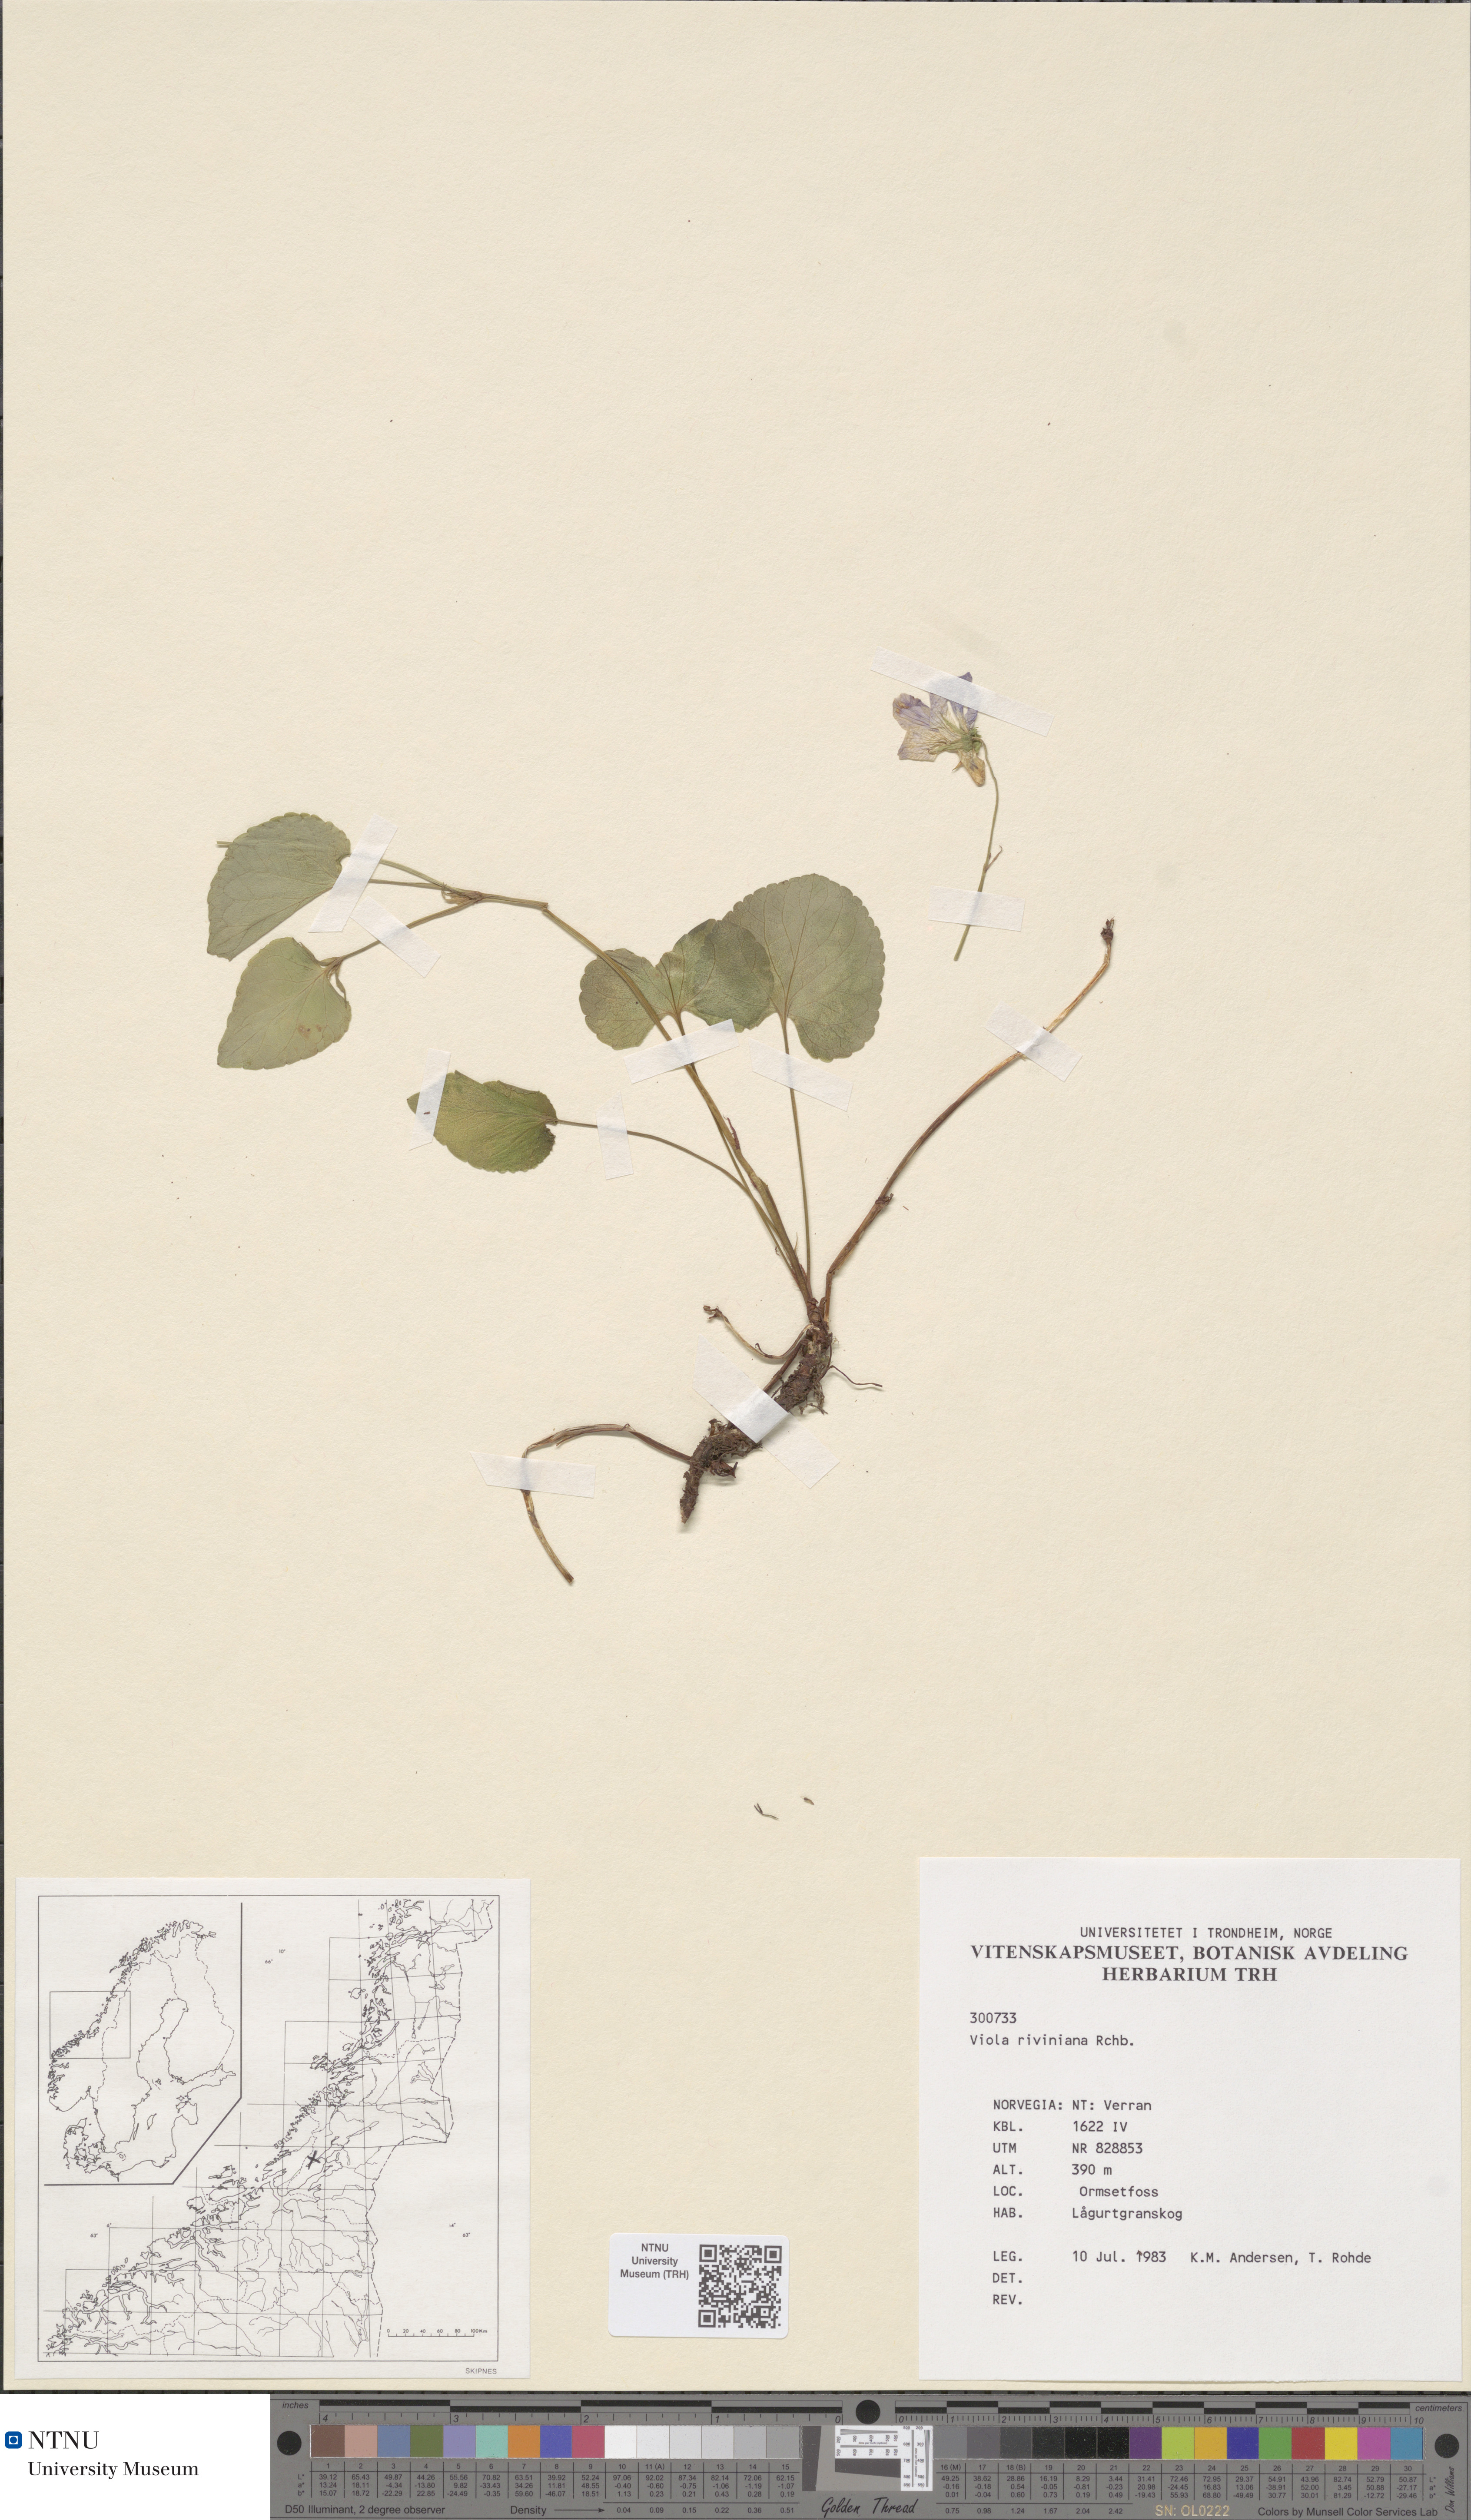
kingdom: Plantae
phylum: Tracheophyta
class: Magnoliopsida
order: Malpighiales
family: Violaceae
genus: Viola
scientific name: Viola riviniana
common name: Common dog-violet
